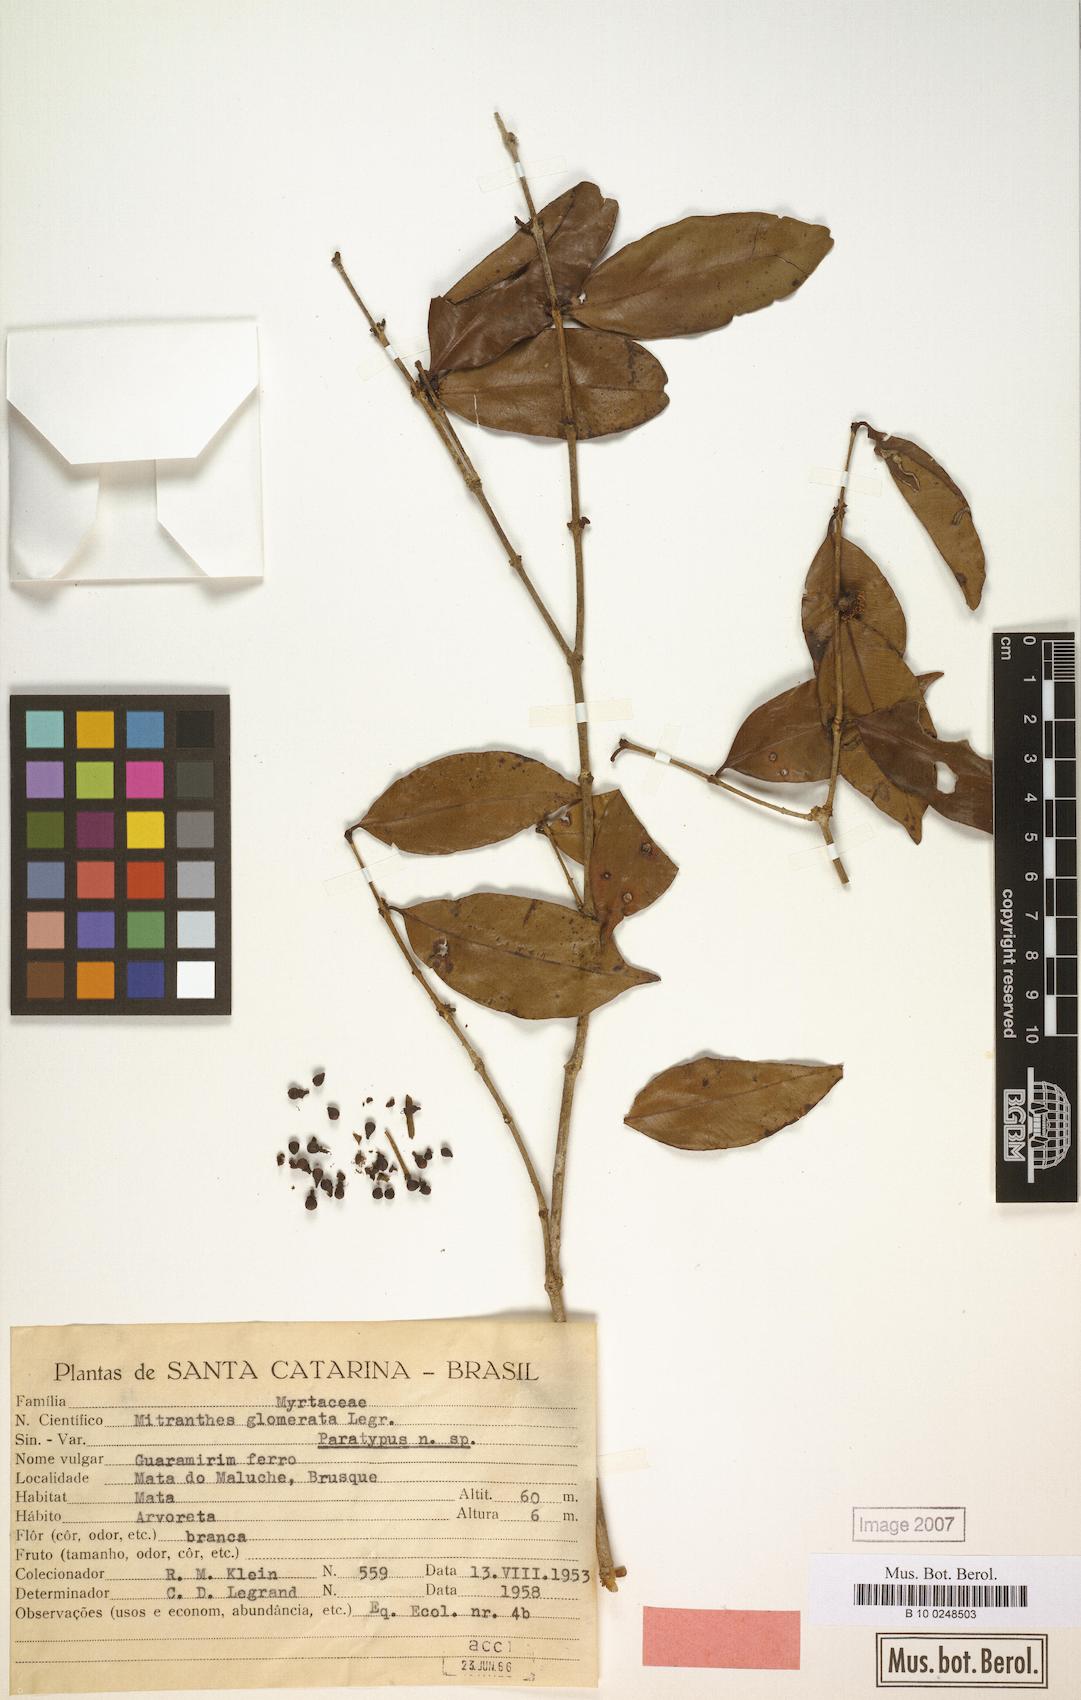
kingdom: Plantae
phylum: Tracheophyta
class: Magnoliopsida
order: Myrtales
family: Myrtaceae
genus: Neomitranthes
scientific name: Neomitranthes glomerata
